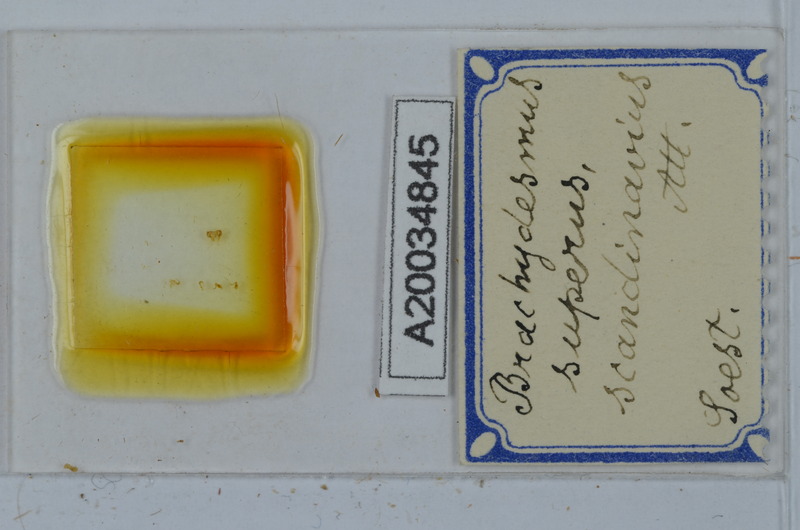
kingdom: Animalia
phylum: Arthropoda
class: Diplopoda
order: Polydesmida
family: Polydesmidae
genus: Brachydesmus
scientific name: Brachydesmus superus
